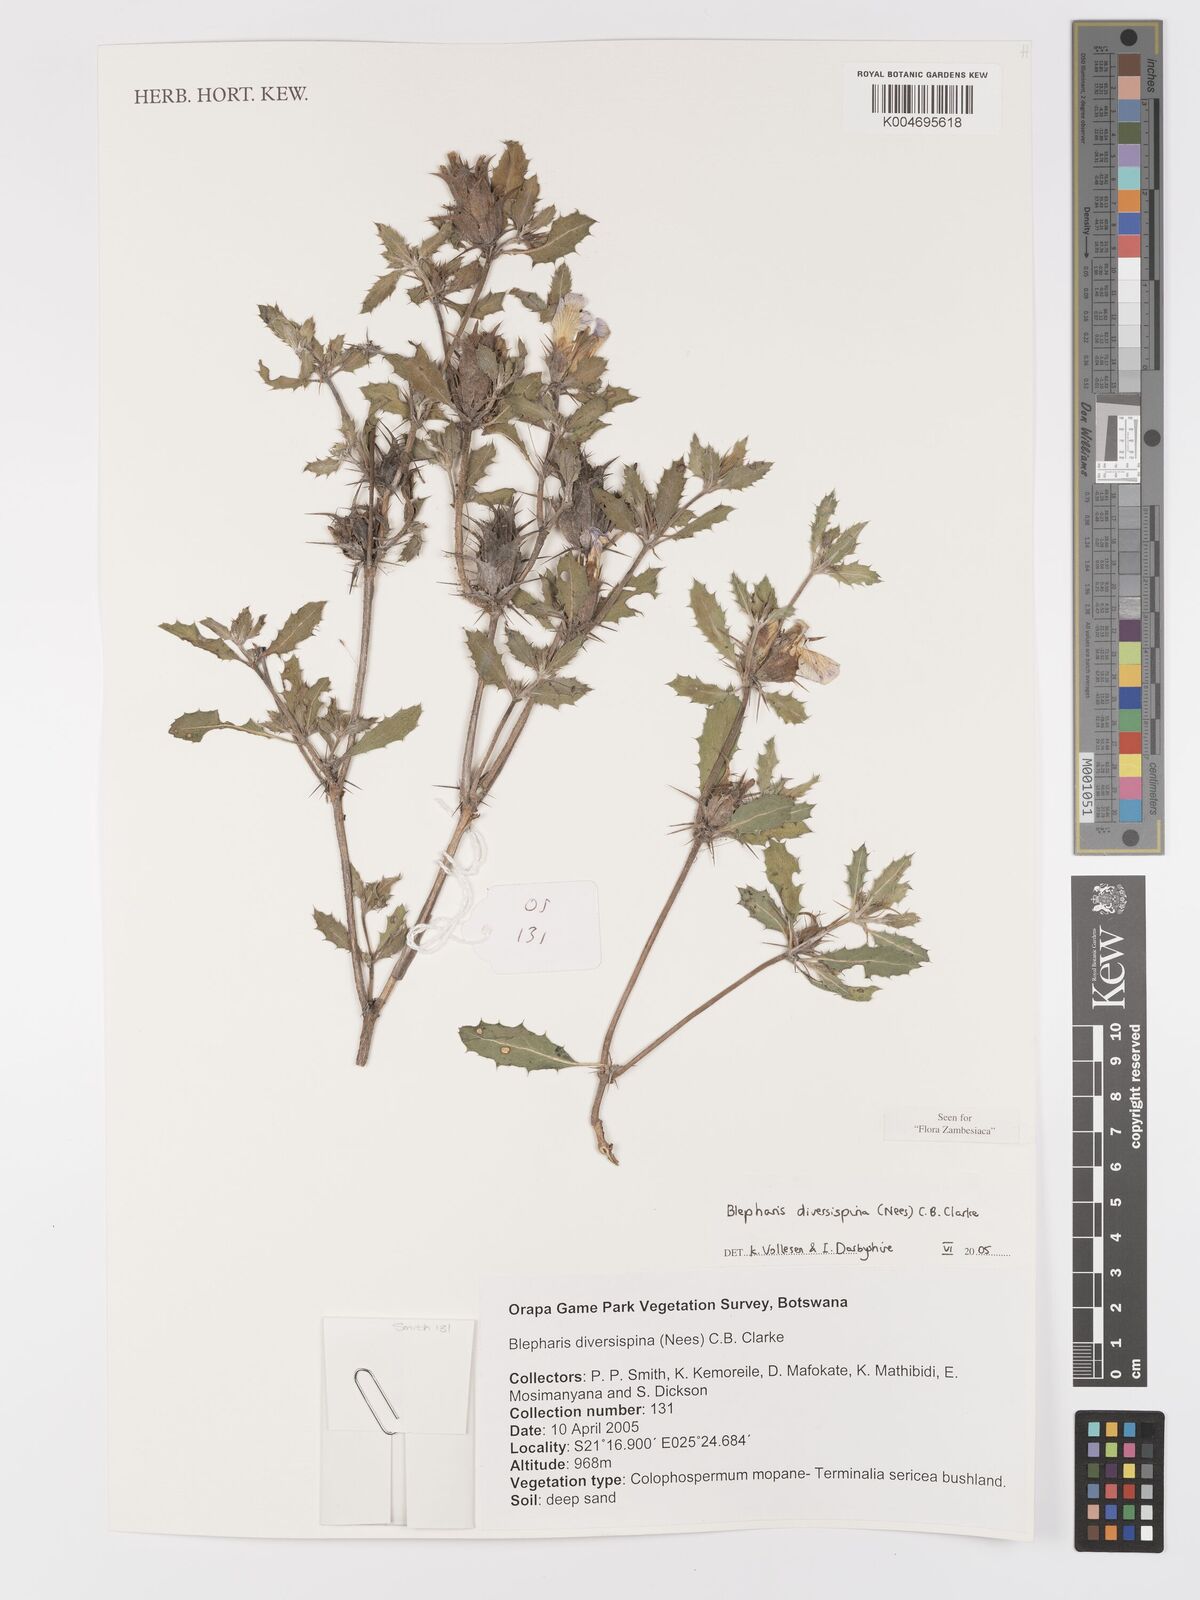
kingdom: Plantae
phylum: Tracheophyta
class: Magnoliopsida
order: Lamiales
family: Acanthaceae
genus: Blepharis
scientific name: Blepharis diversispina
